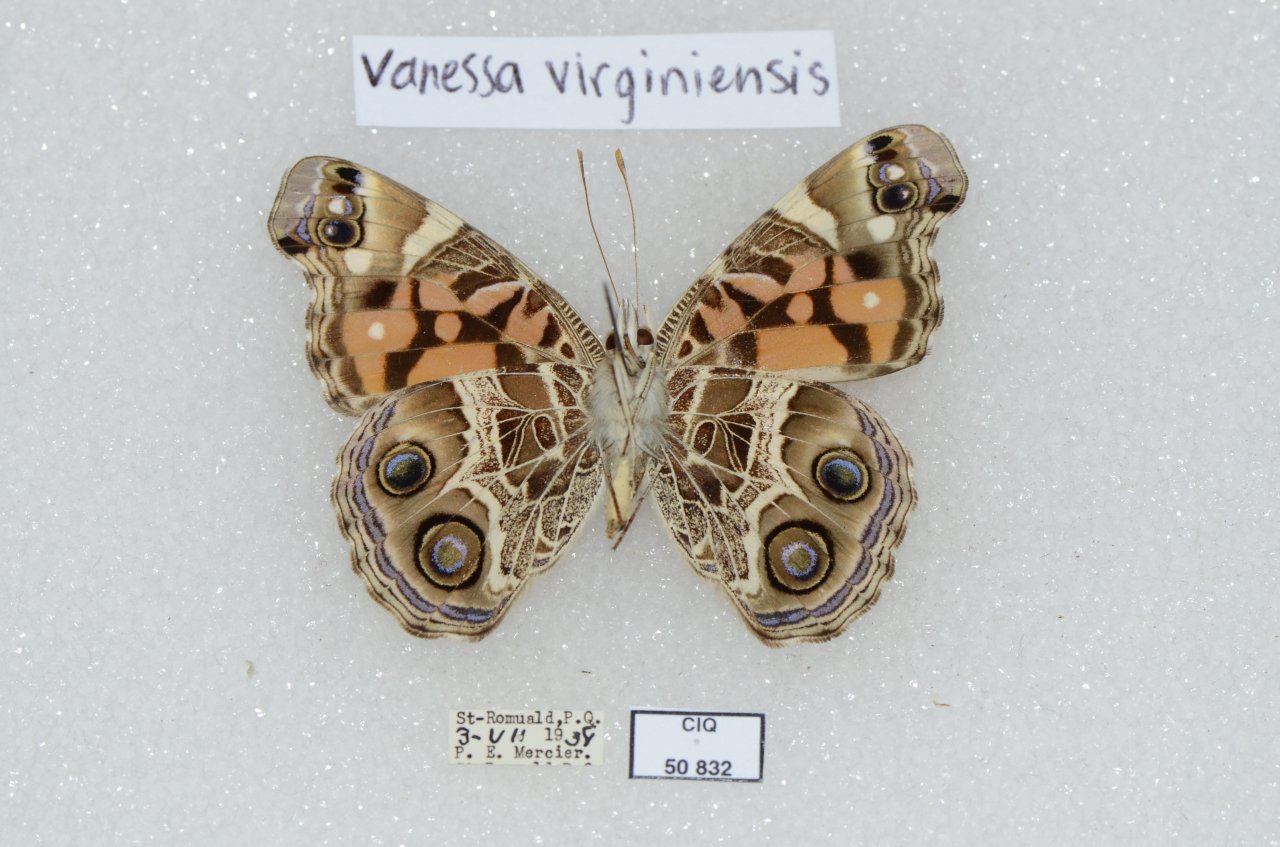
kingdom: Animalia
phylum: Arthropoda
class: Insecta
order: Lepidoptera
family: Nymphalidae
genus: Vanessa
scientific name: Vanessa virginiensis
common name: American Lady
